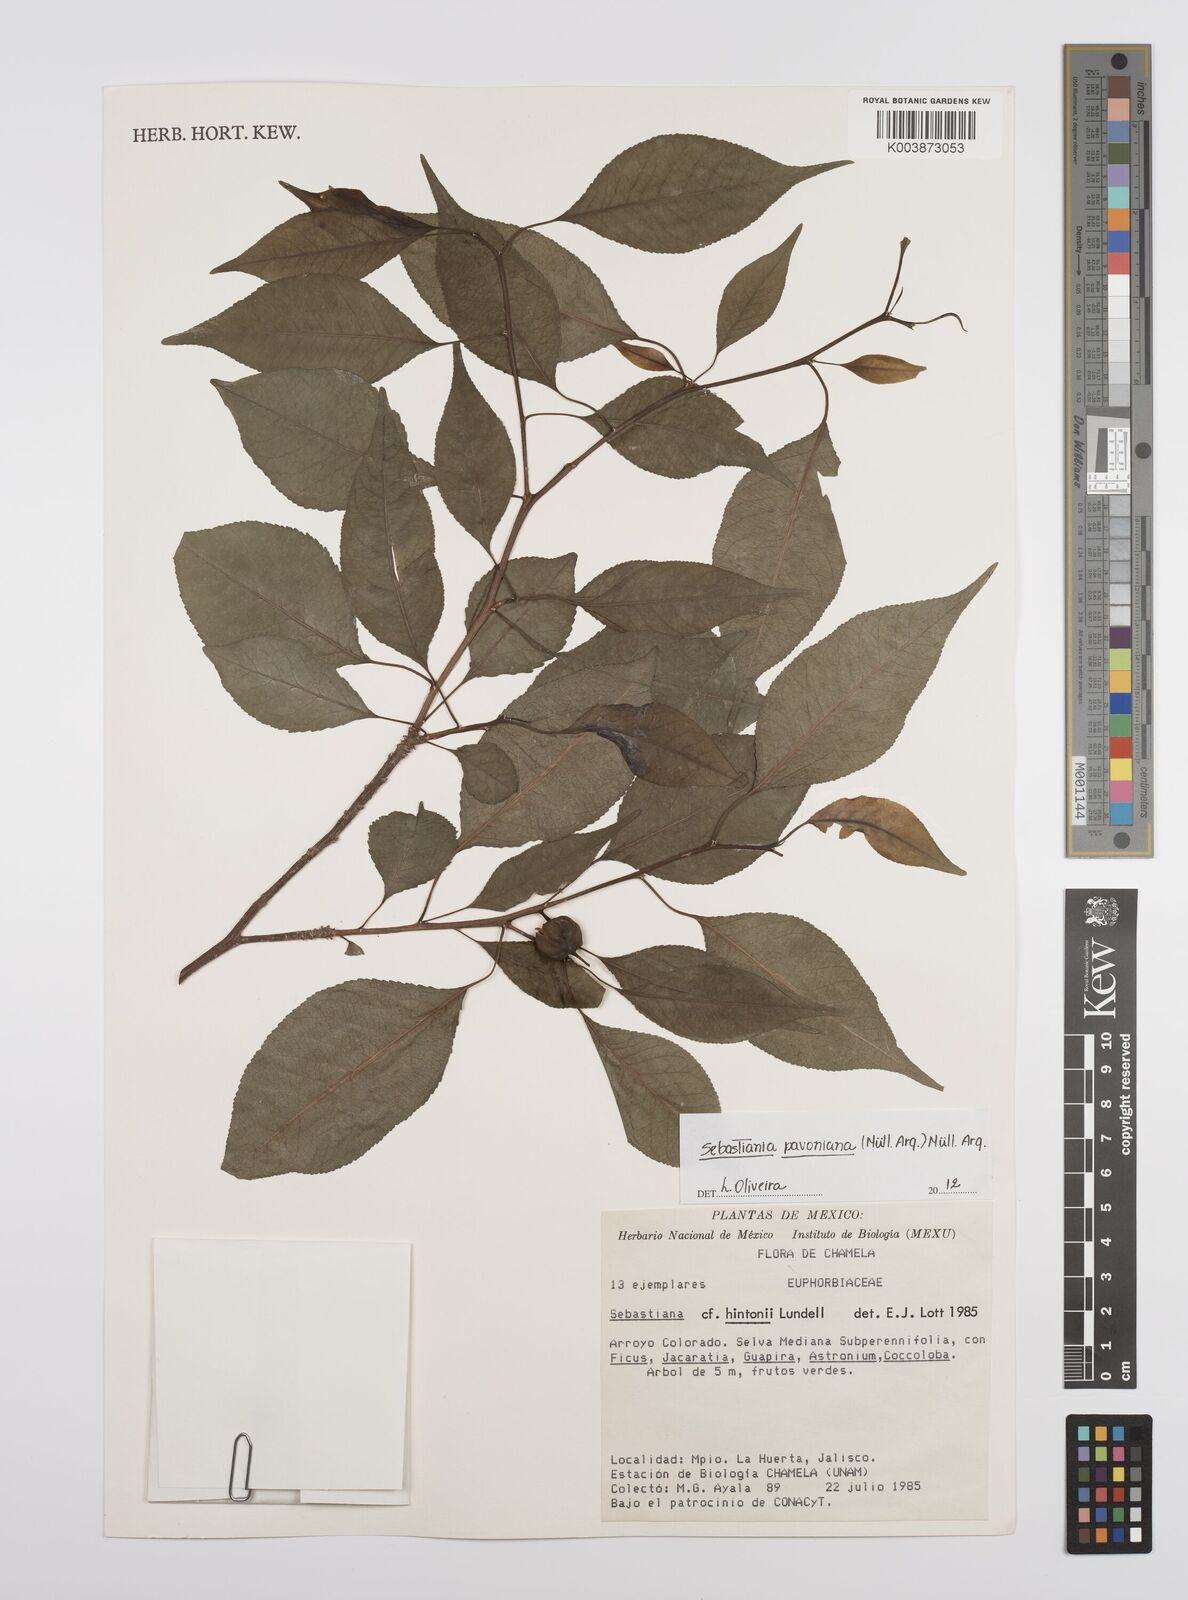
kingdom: Plantae
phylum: Tracheophyta
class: Magnoliopsida
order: Malpighiales
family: Euphorbiaceae
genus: Sebastiania
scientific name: Sebastiania pavoniana
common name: Mexican jumping-beans
